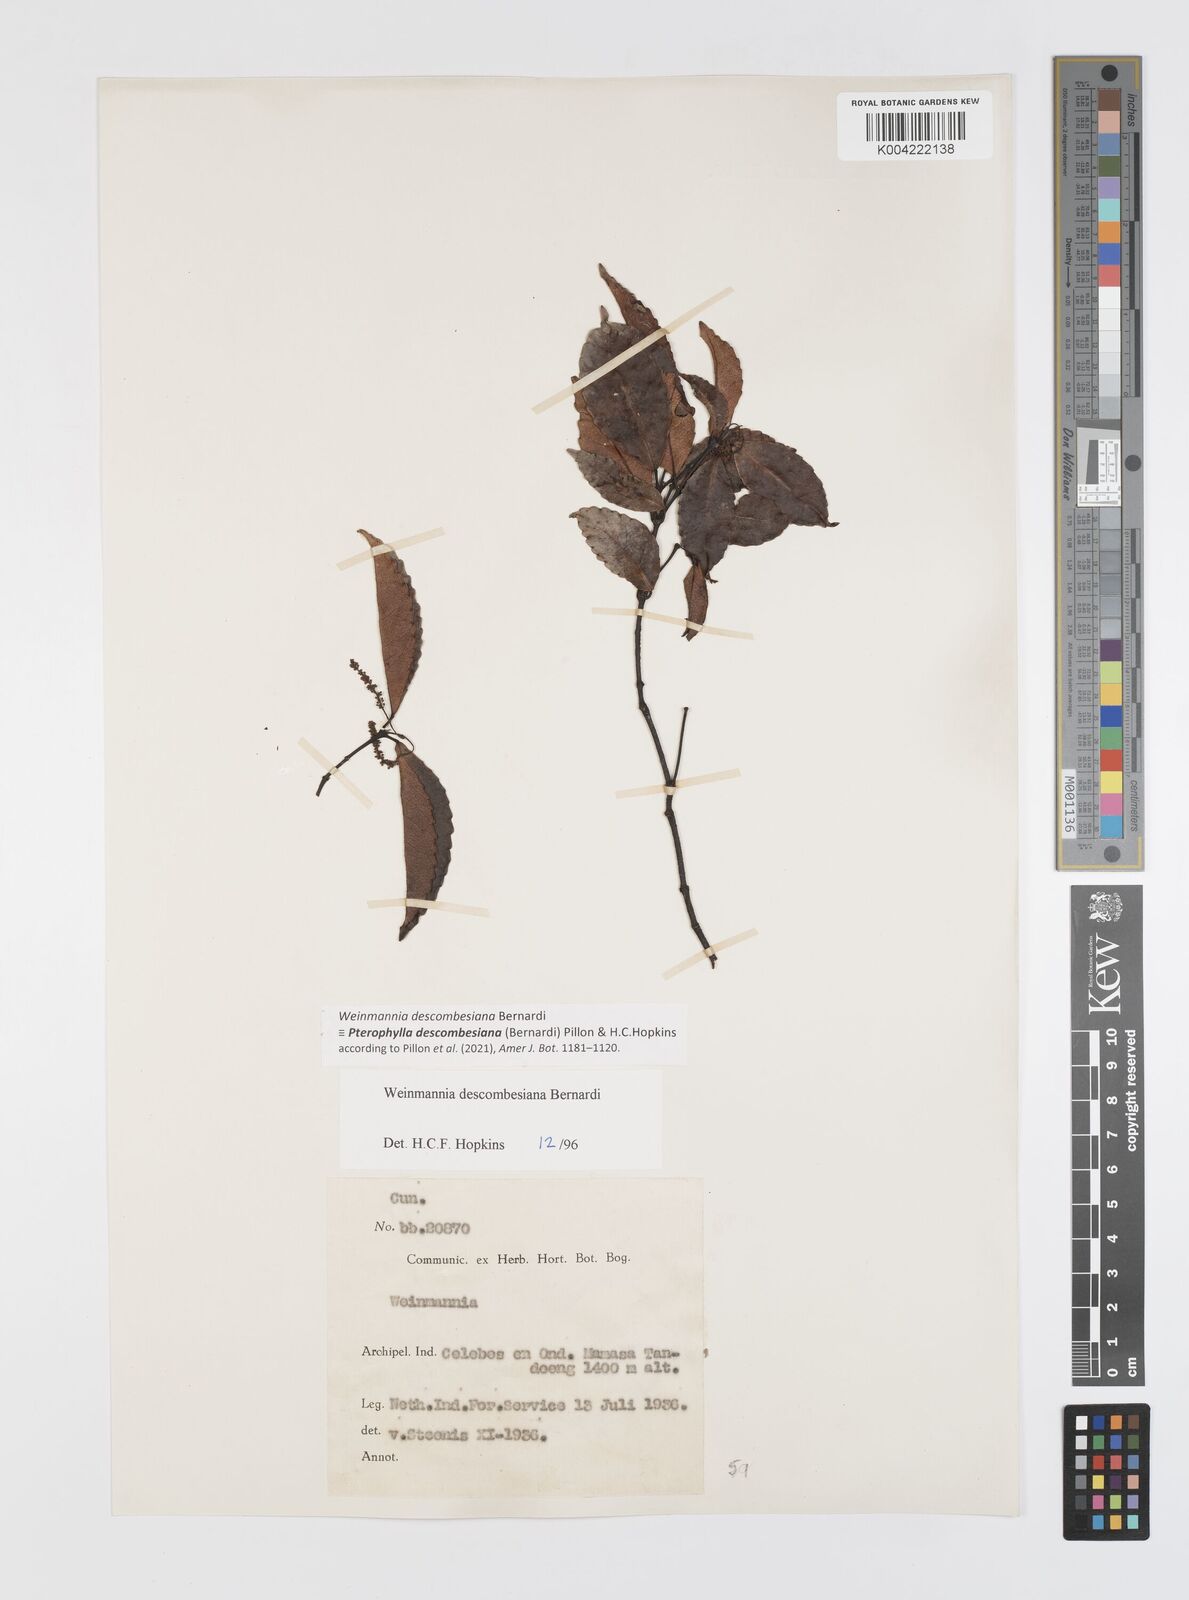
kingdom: Plantae
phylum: Tracheophyta
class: Magnoliopsida
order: Oxalidales
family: Cunoniaceae
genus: Pterophylla
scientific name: Pterophylla descombesiana
